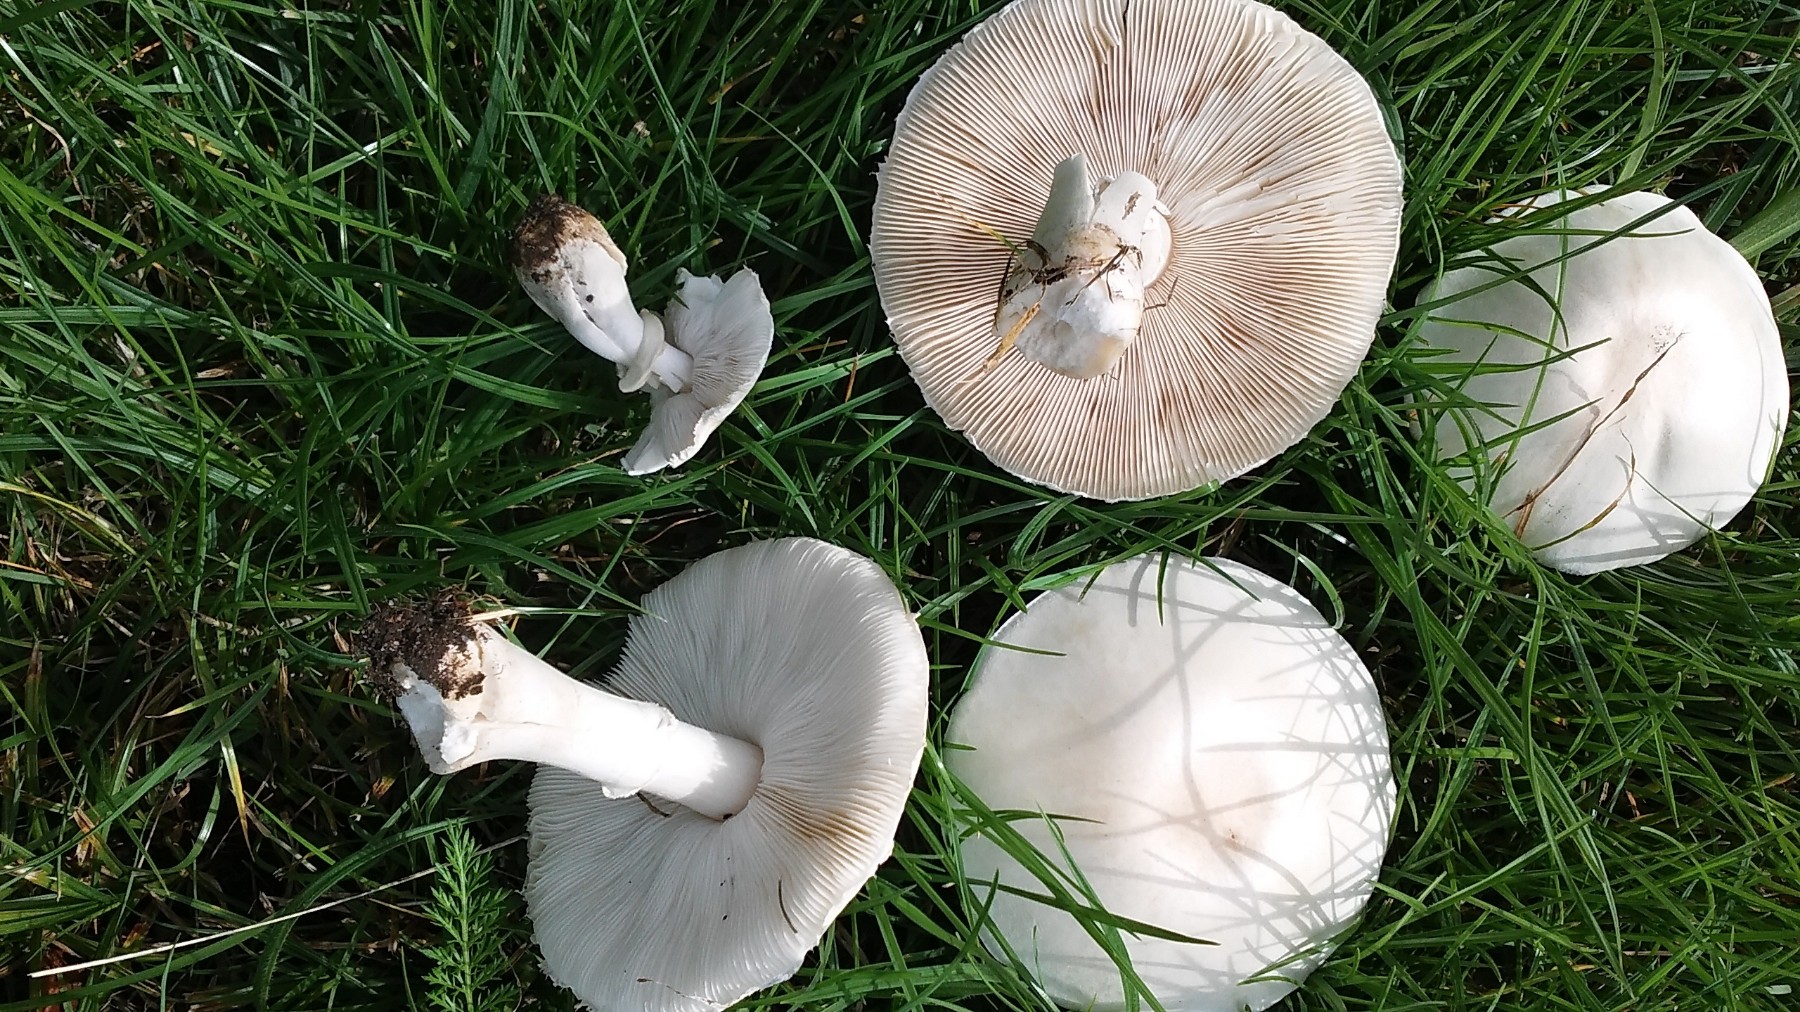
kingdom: Fungi
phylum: Basidiomycota
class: Agaricomycetes
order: Agaricales
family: Agaricaceae
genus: Leucoagaricus
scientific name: Leucoagaricus leucothites
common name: rosabladet silkehat
